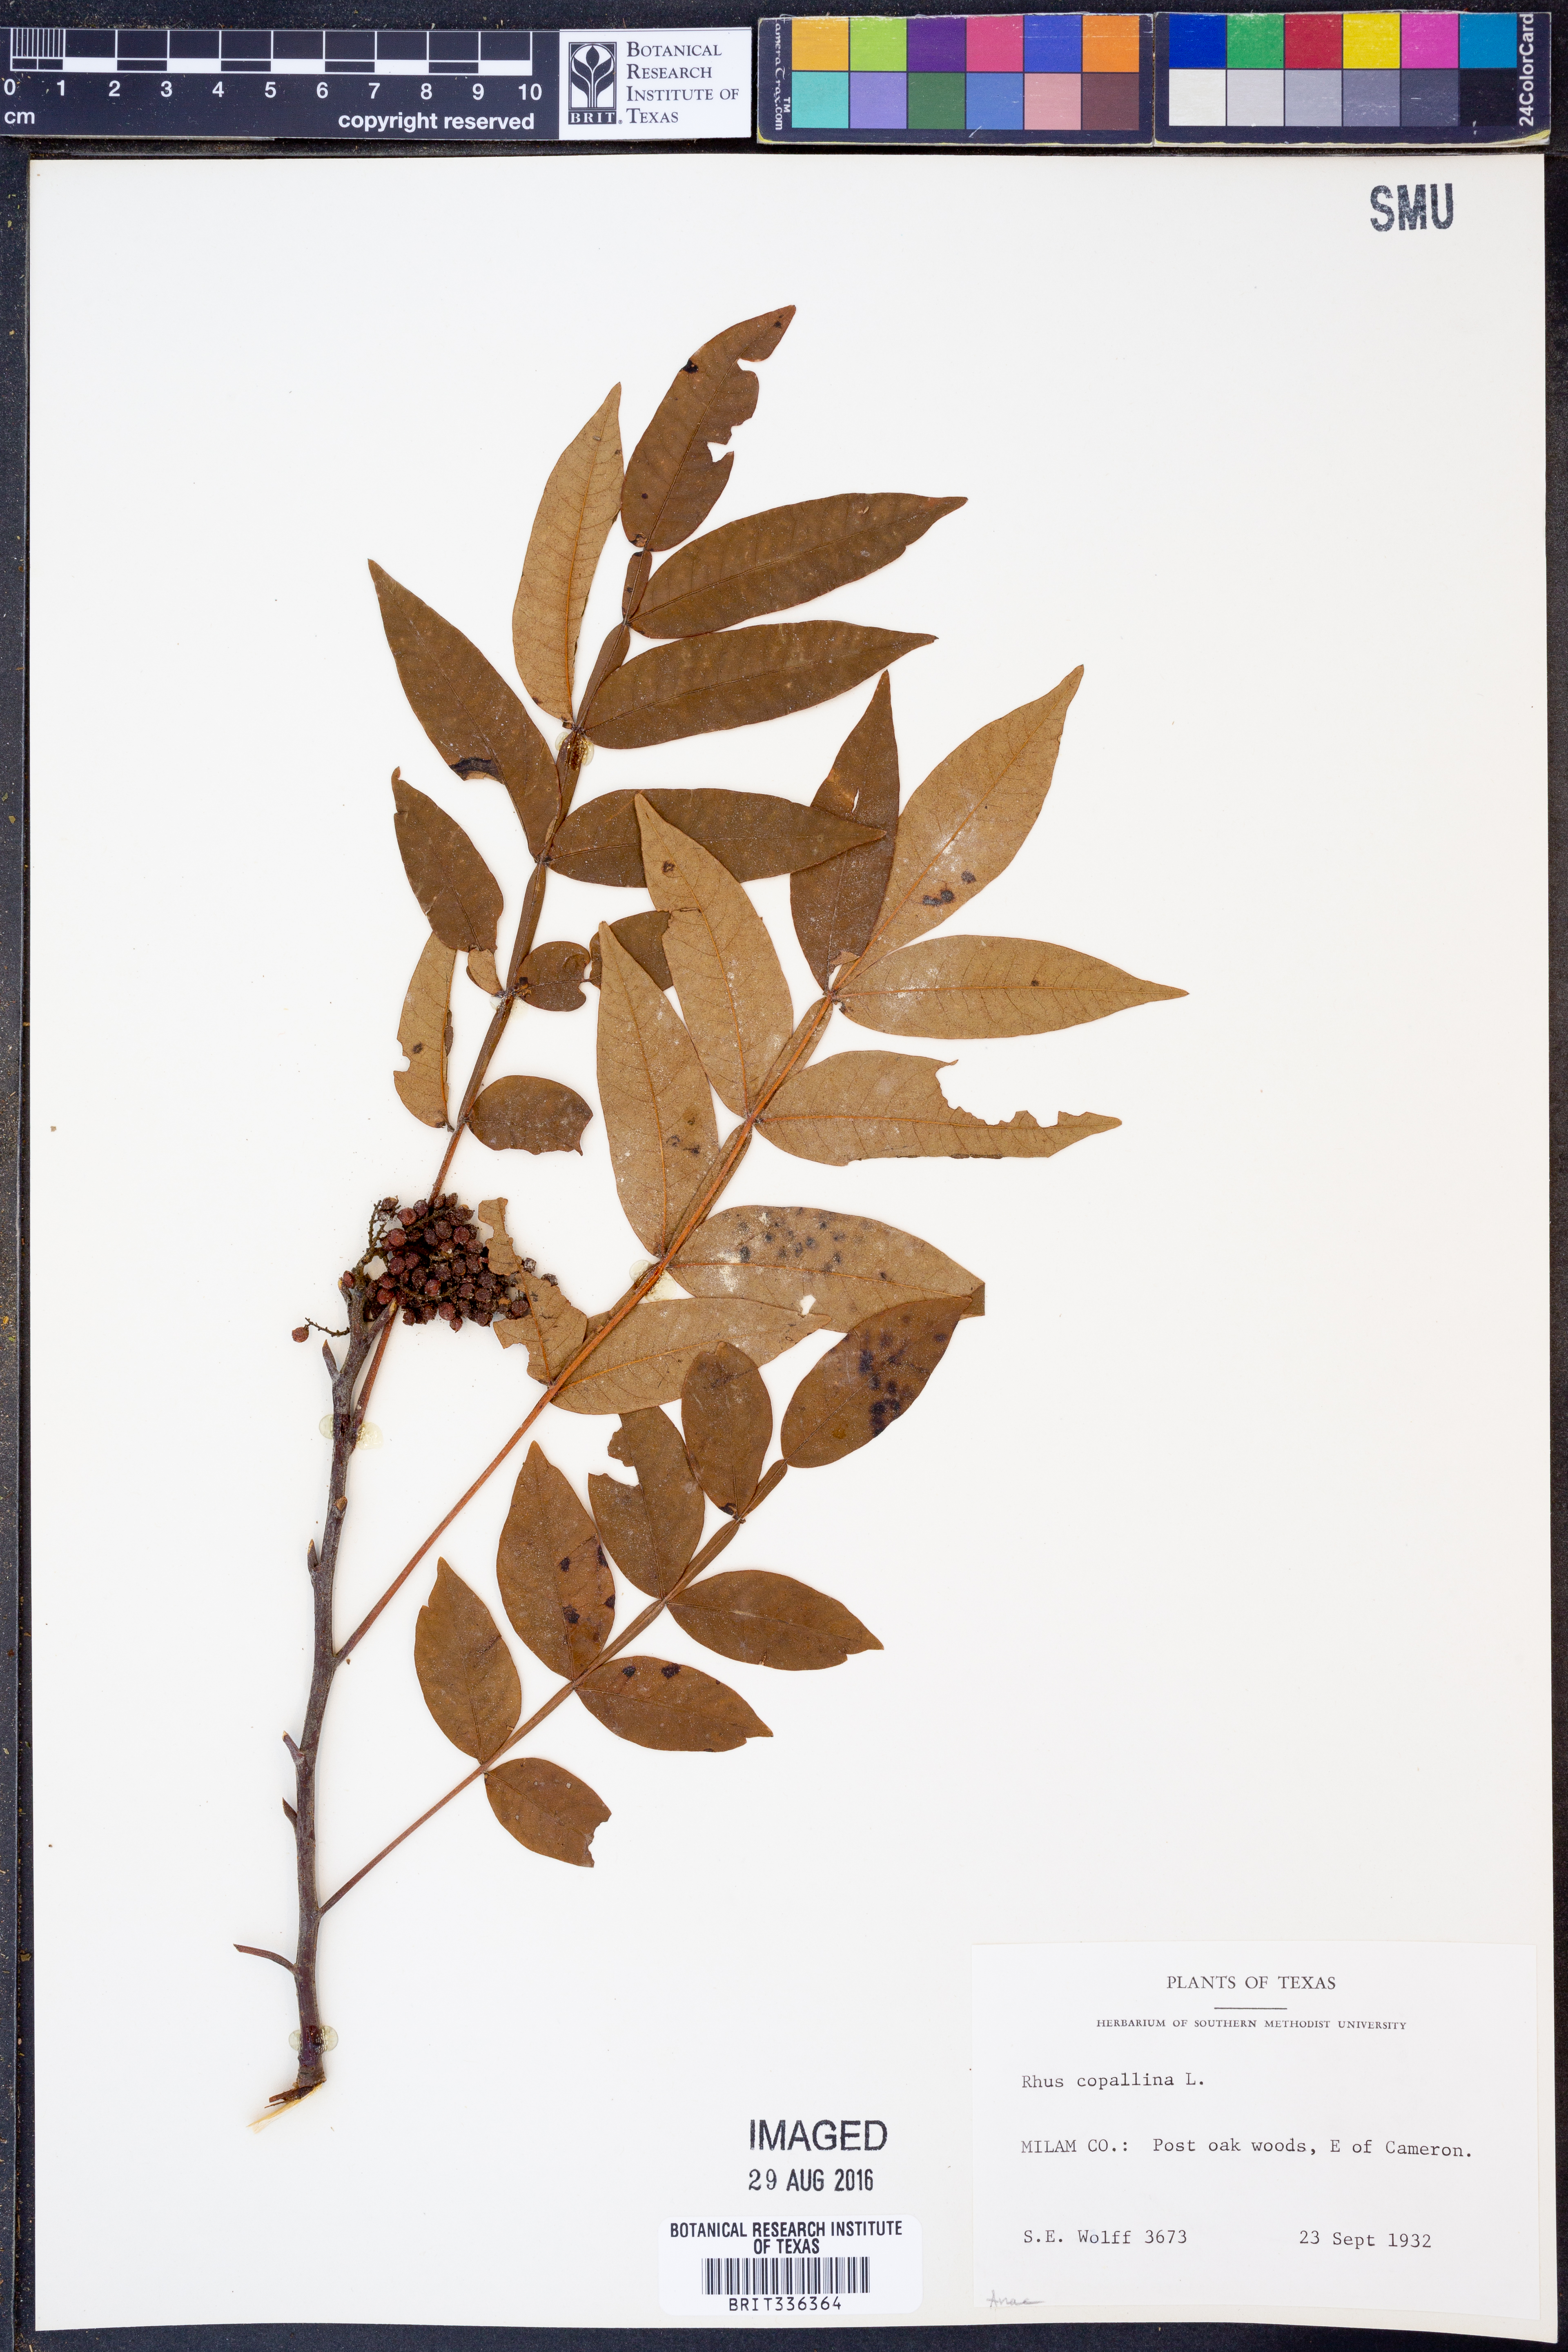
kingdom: Plantae
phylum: Tracheophyta
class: Magnoliopsida
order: Sapindales
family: Anacardiaceae
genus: Rhus
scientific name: Rhus copallina
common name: Shining sumac
